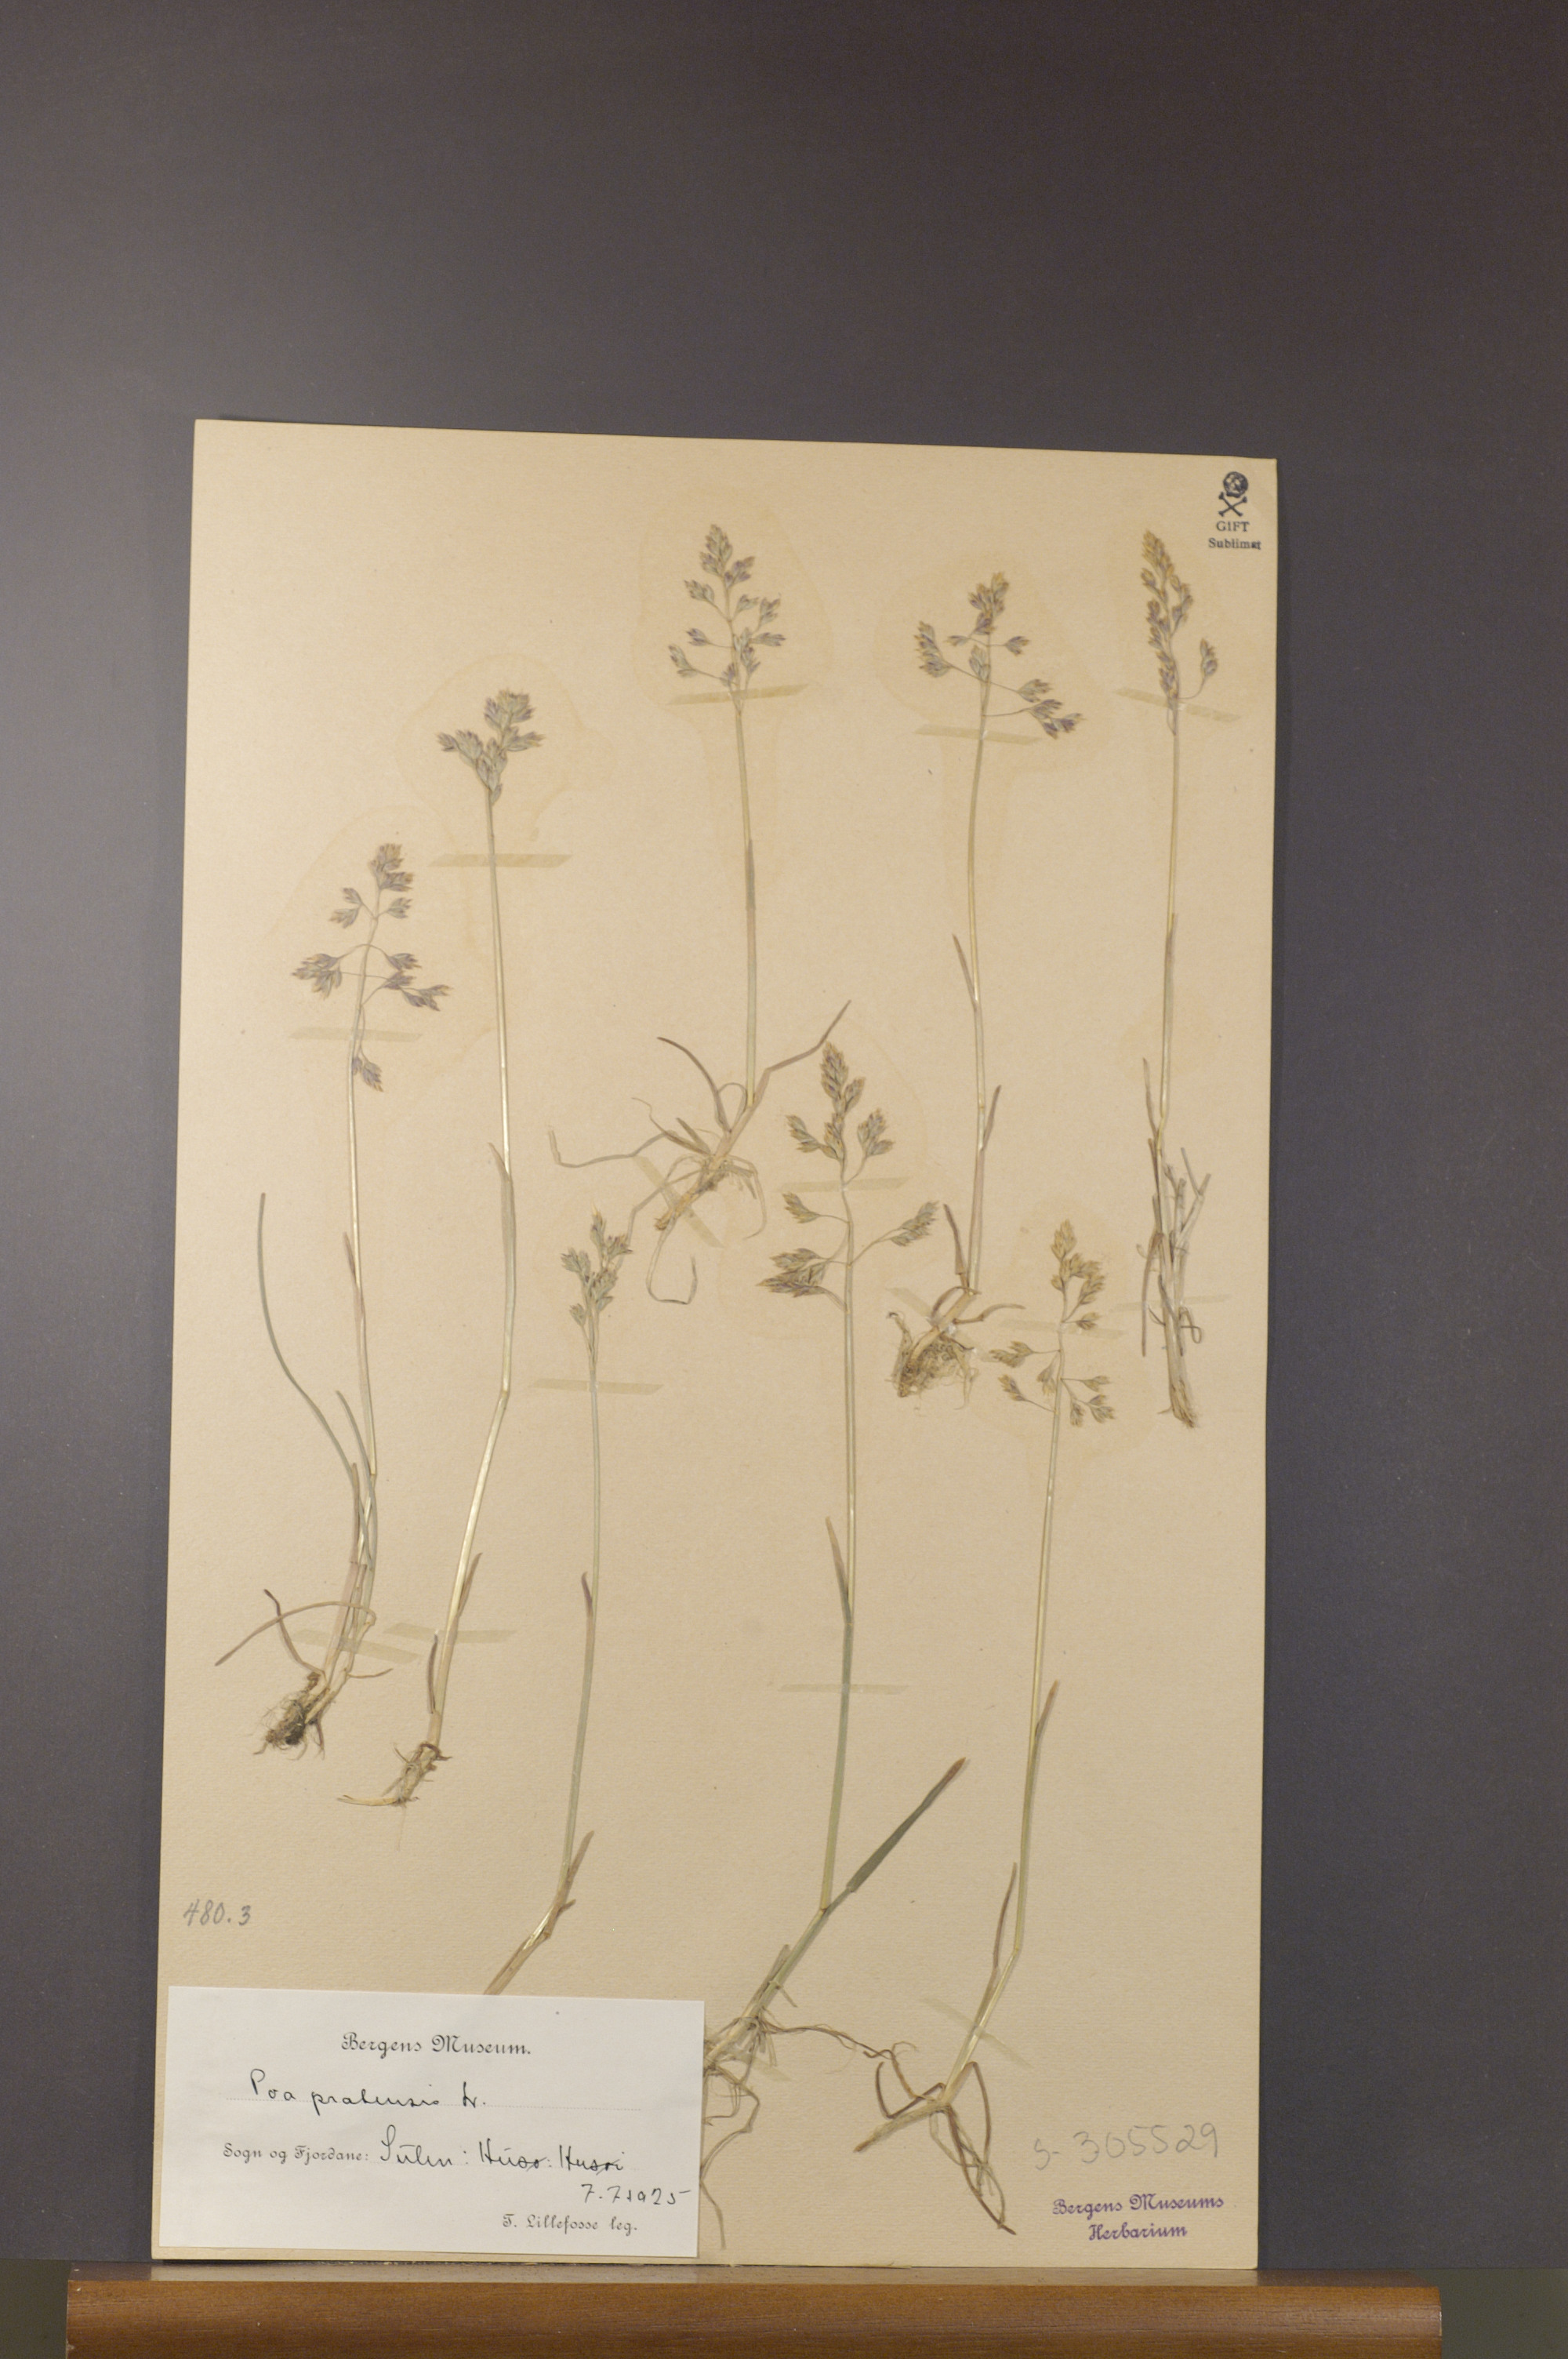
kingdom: Plantae
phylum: Tracheophyta
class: Liliopsida
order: Poales
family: Poaceae
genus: Poa
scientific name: Poa pratensis
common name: Kentucky bluegrass
